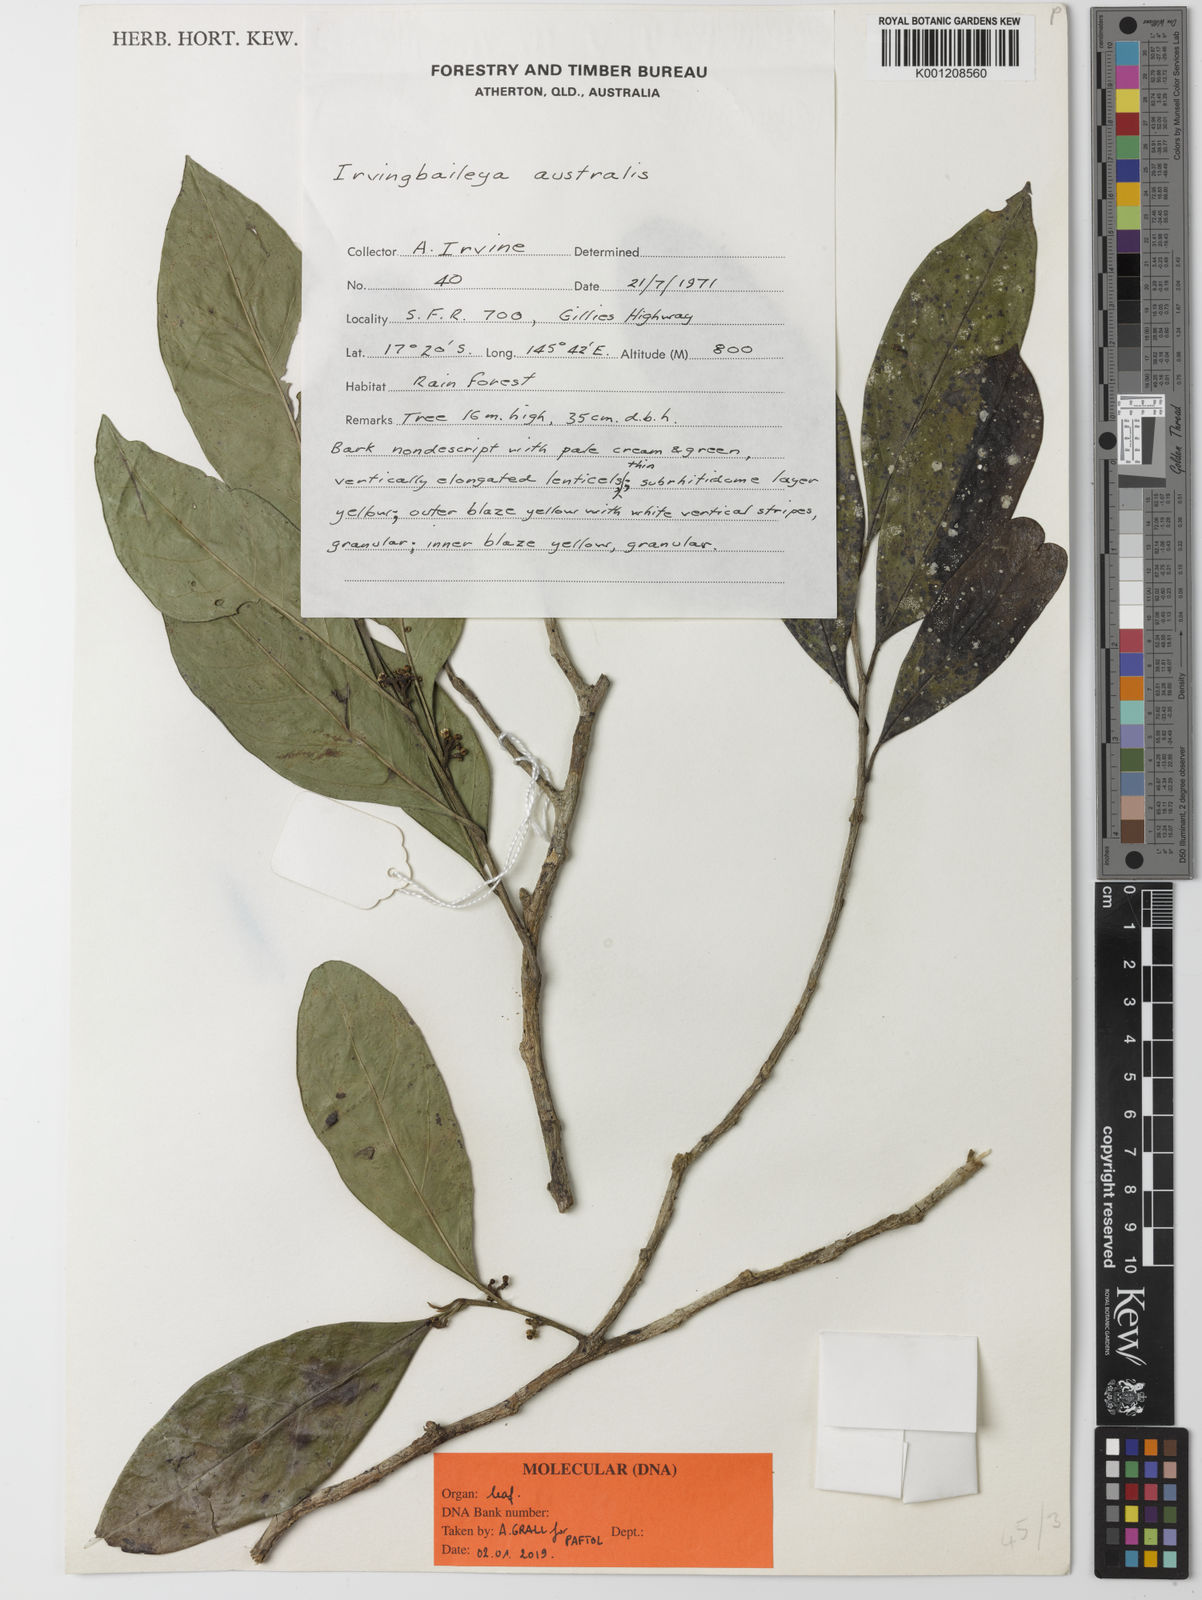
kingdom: Plantae
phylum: Tracheophyta
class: Magnoliopsida
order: Cardiopteridales
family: Stemonuraceae
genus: Irvingbaileya
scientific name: Irvingbaileya australis
